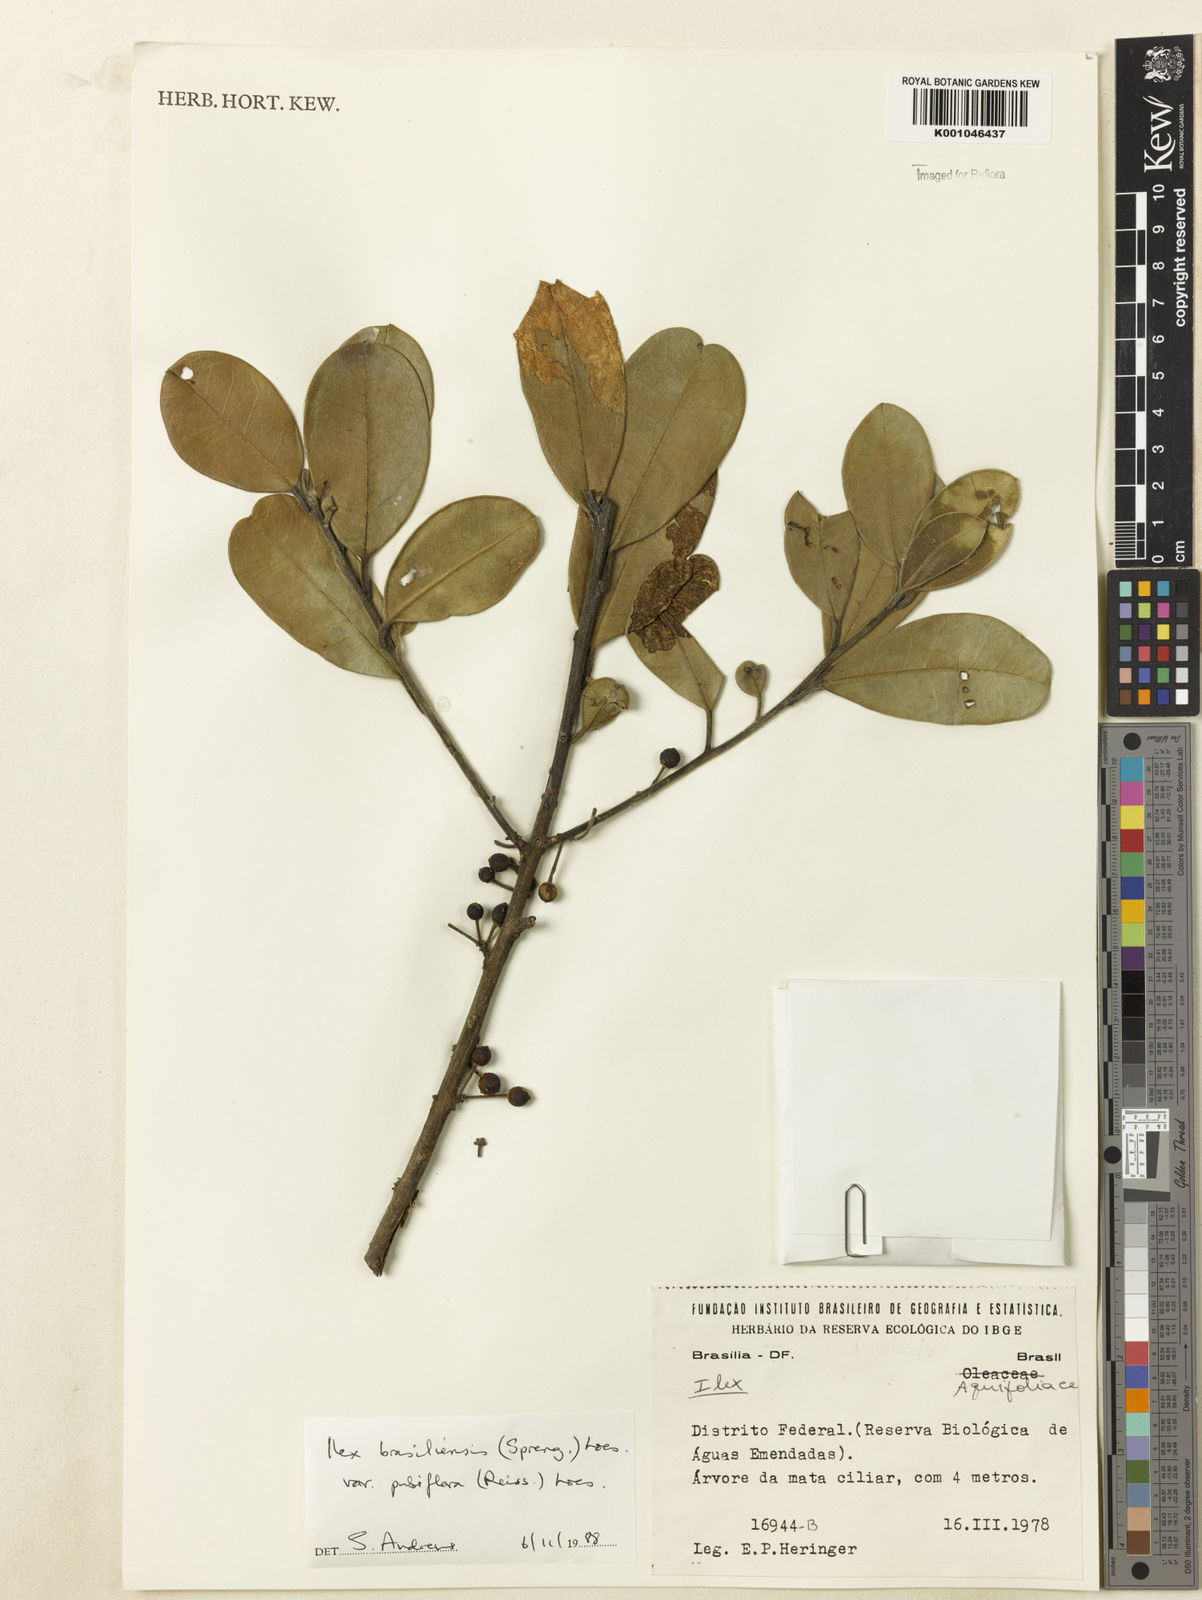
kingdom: Plantae
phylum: Tracheophyta
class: Magnoliopsida
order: Aquifoliales
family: Aquifoliaceae
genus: Ilex
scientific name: Ilex brasiliensis
